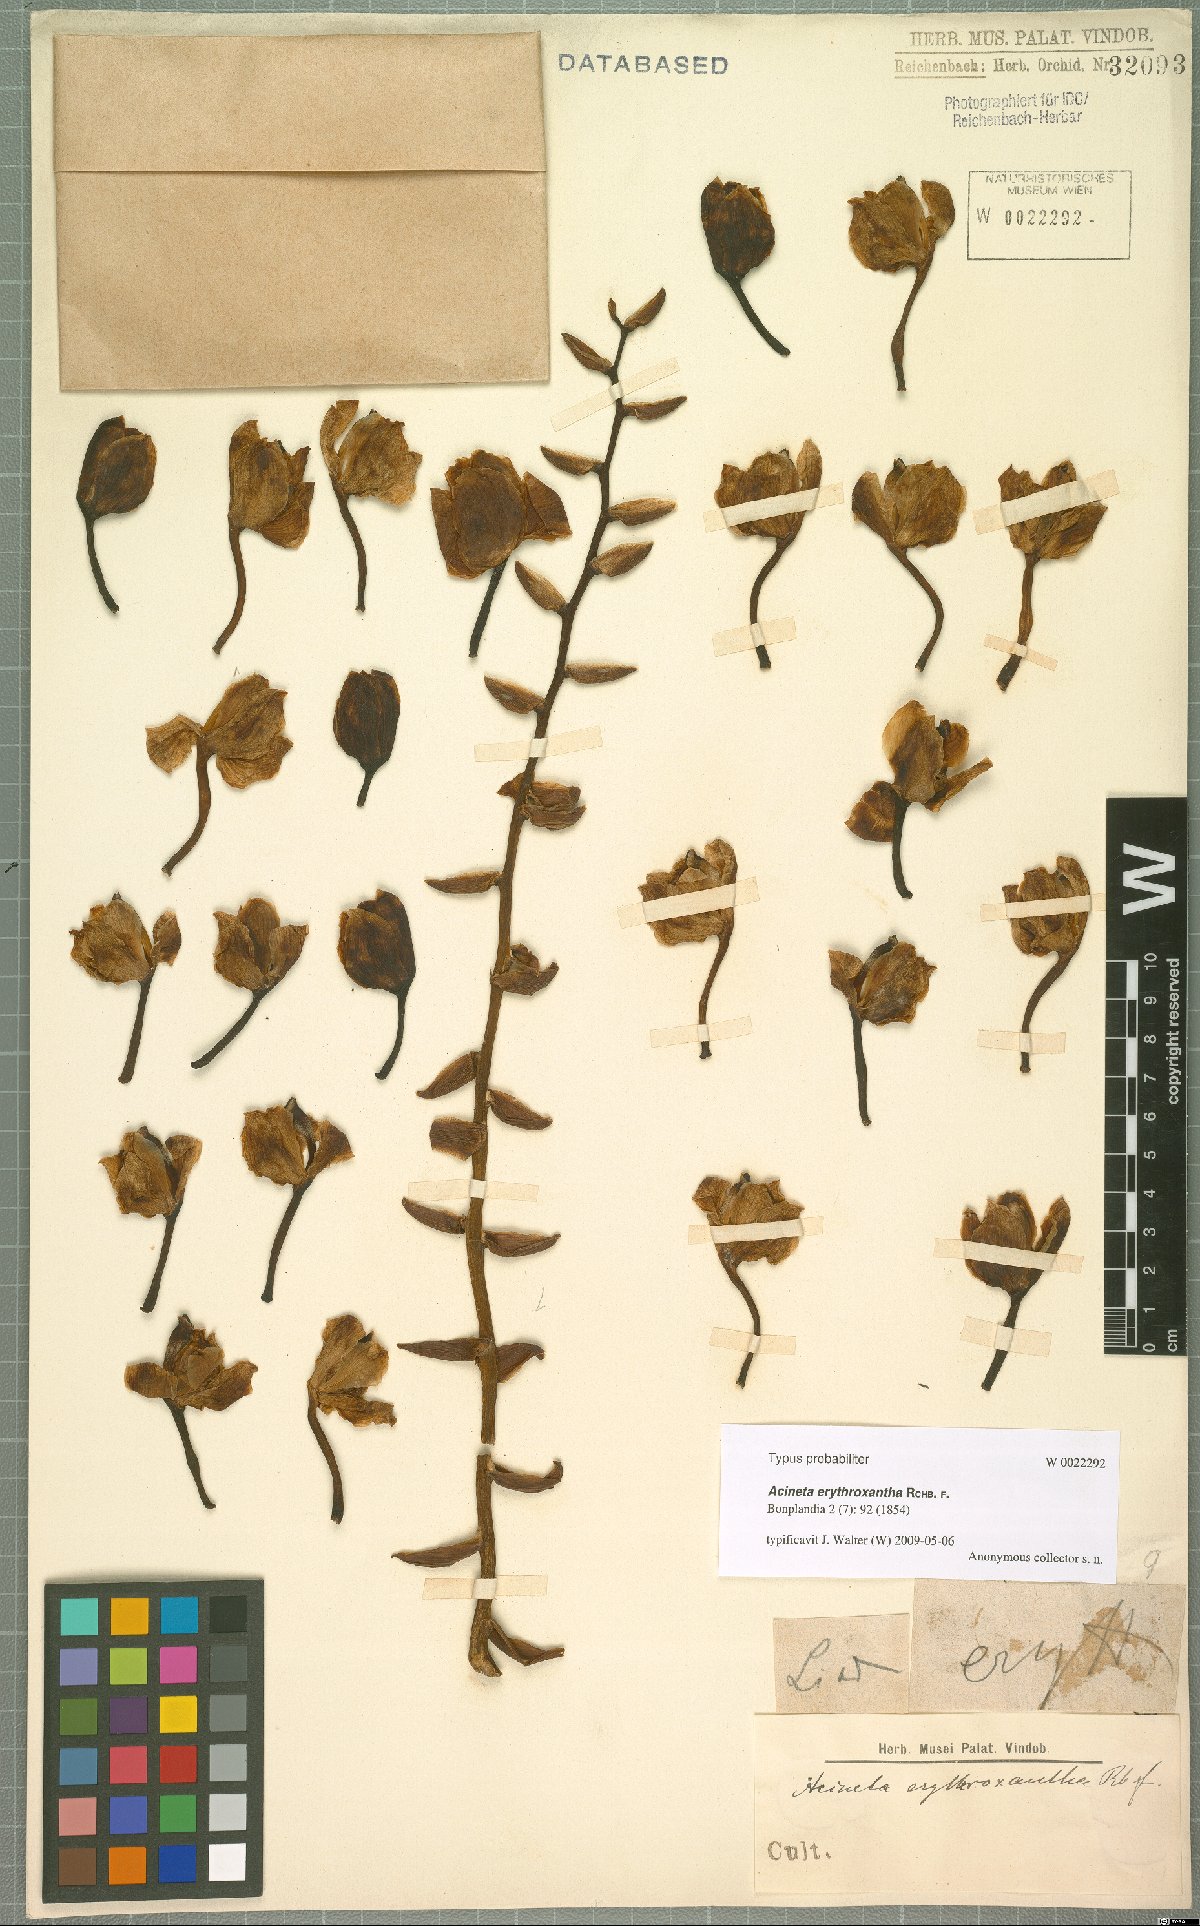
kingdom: Plantae
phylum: Tracheophyta
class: Liliopsida
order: Asparagales
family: Orchidaceae
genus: Acineta
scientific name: Acineta erythroxantha
